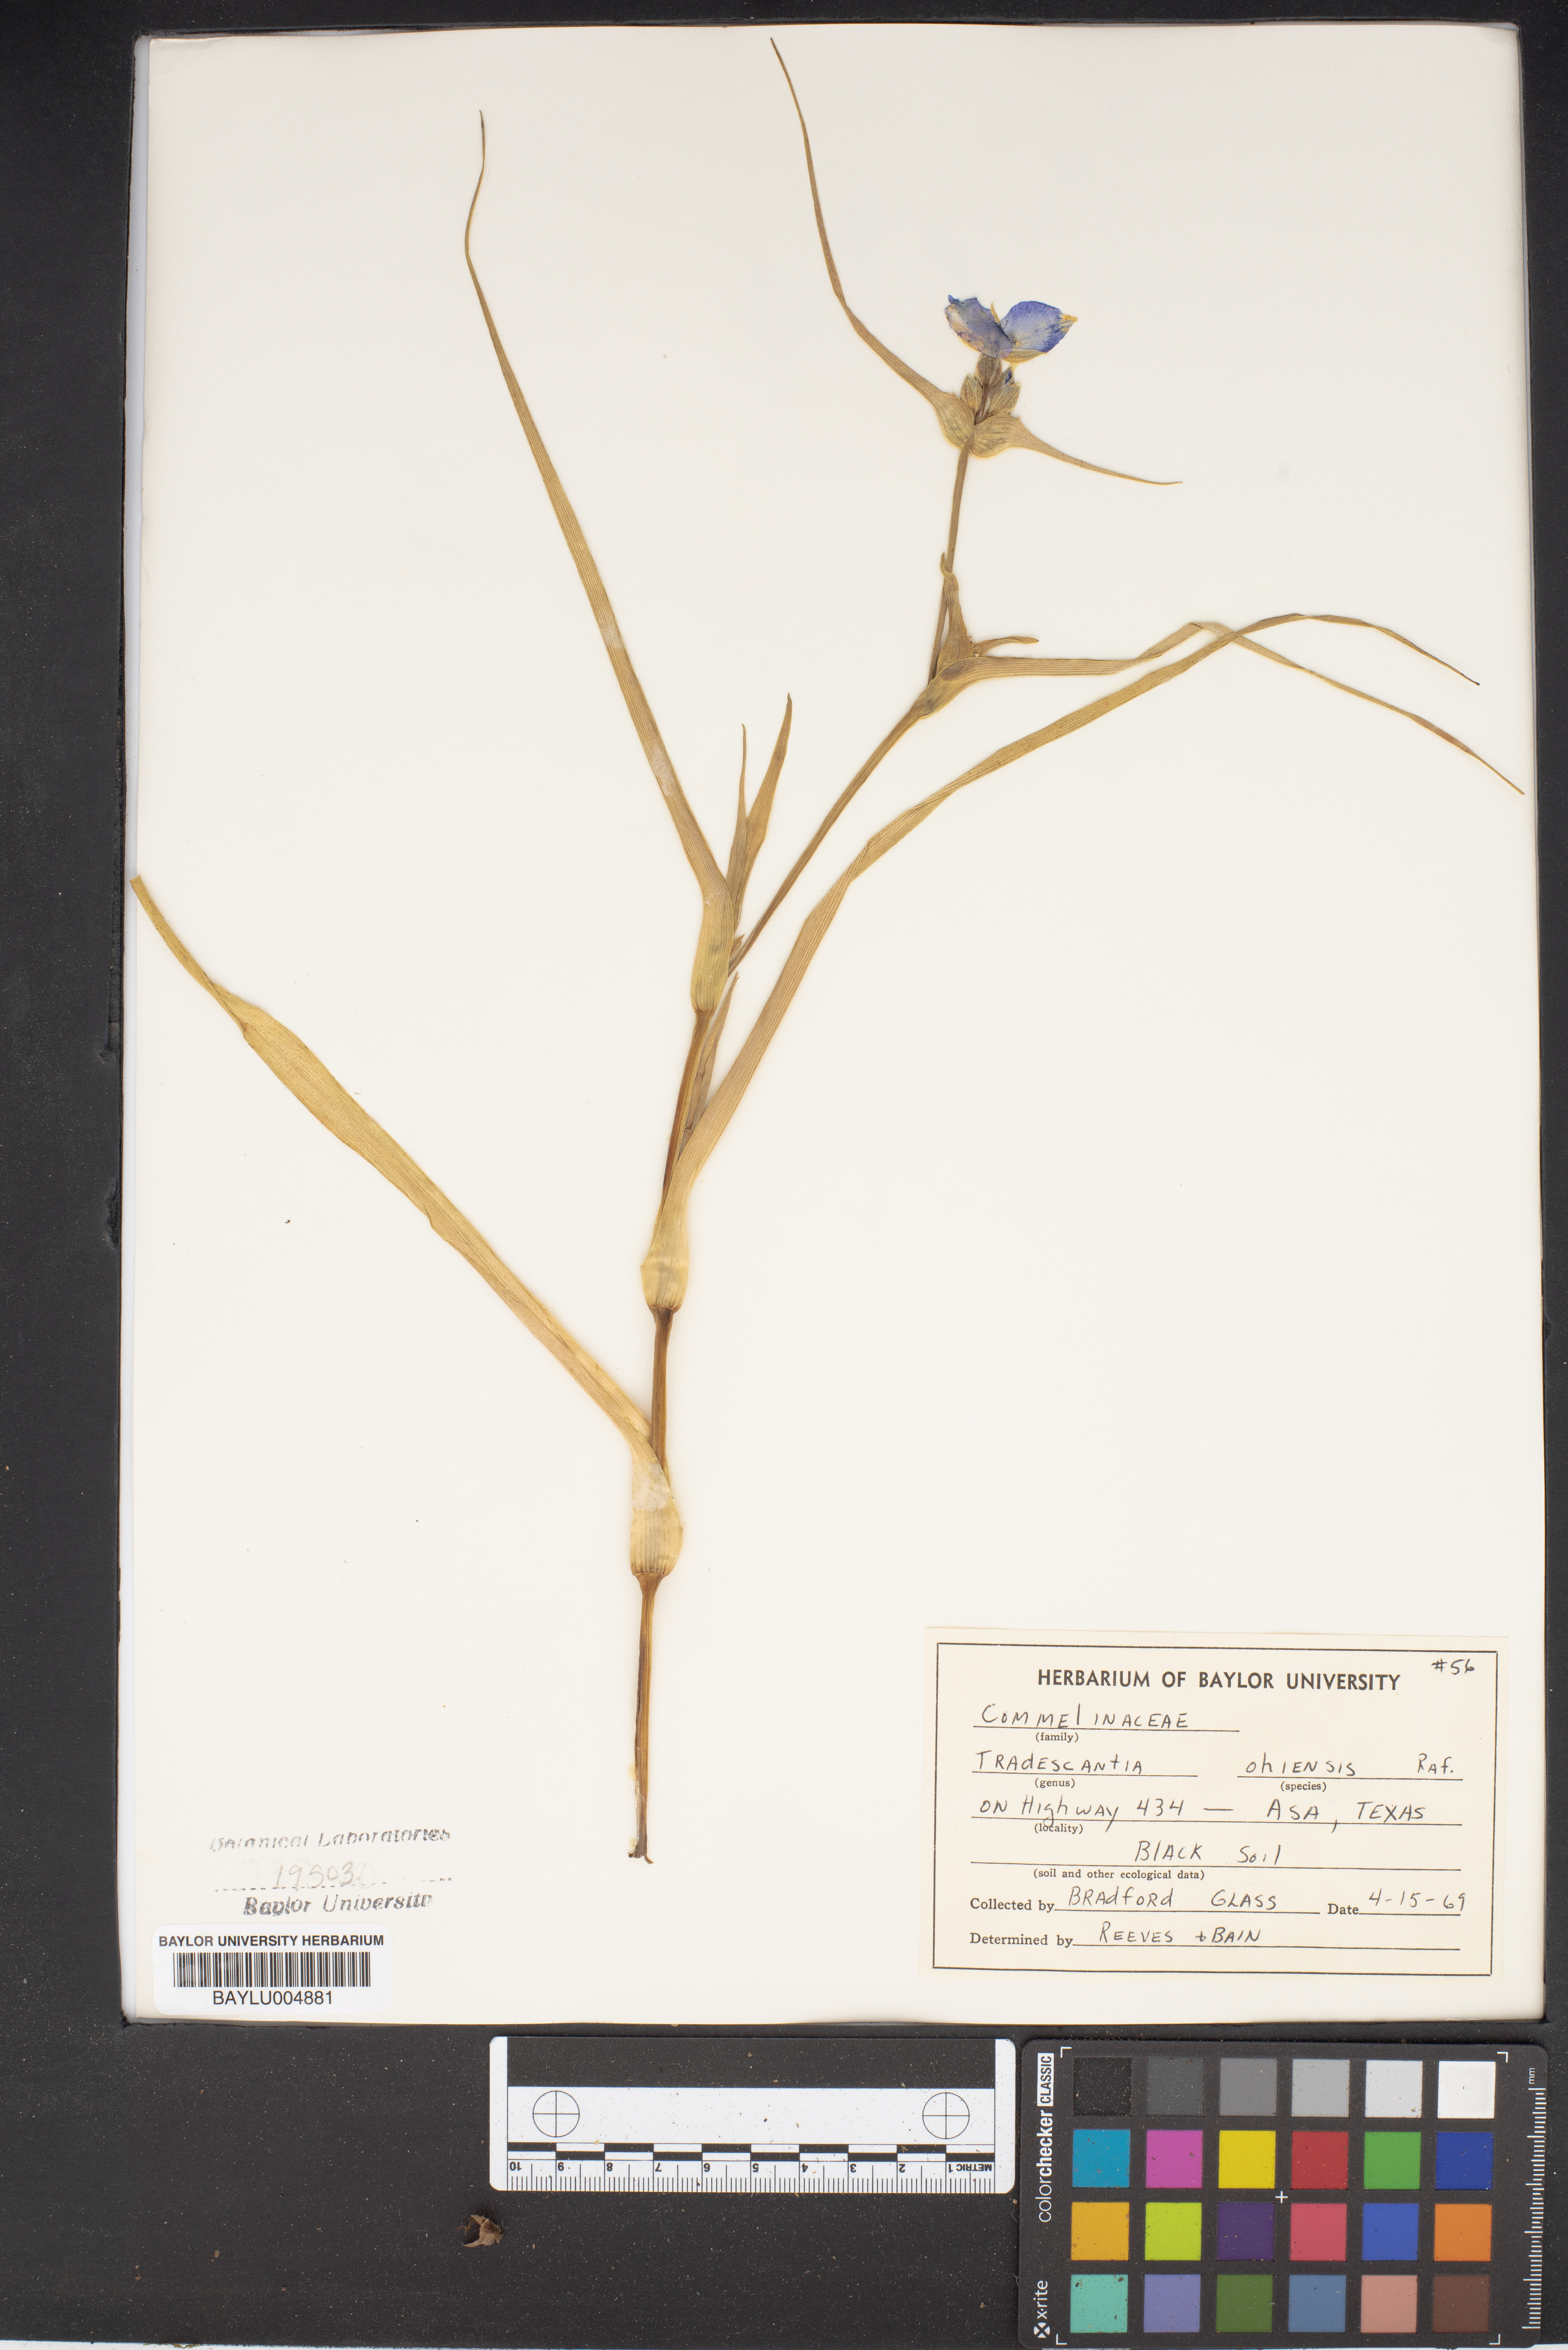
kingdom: Plantae
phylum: Tracheophyta
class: Liliopsida
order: Commelinales
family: Commelinaceae
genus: Tradescantia
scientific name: Tradescantia ohiensis
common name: Ohio spiderwort
